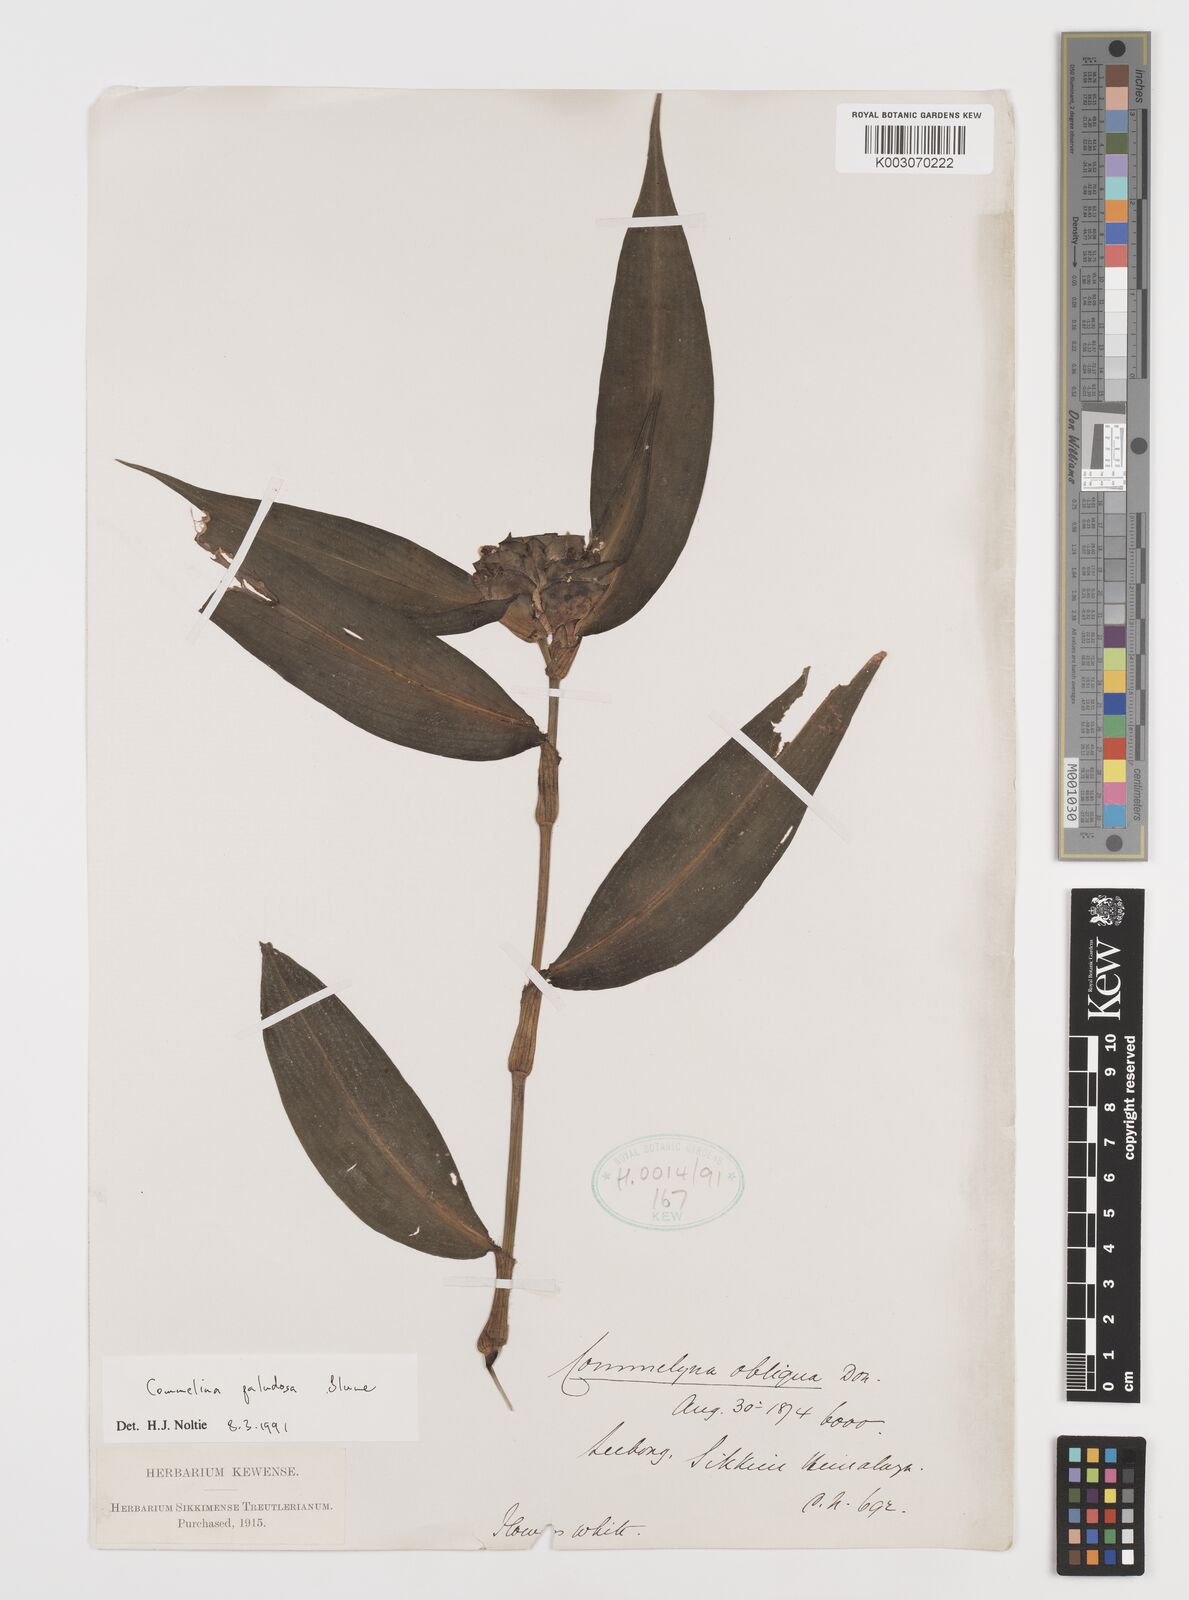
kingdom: Plantae
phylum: Tracheophyta
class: Liliopsida
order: Commelinales
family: Commelinaceae
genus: Commelina
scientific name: Commelina paludosa
